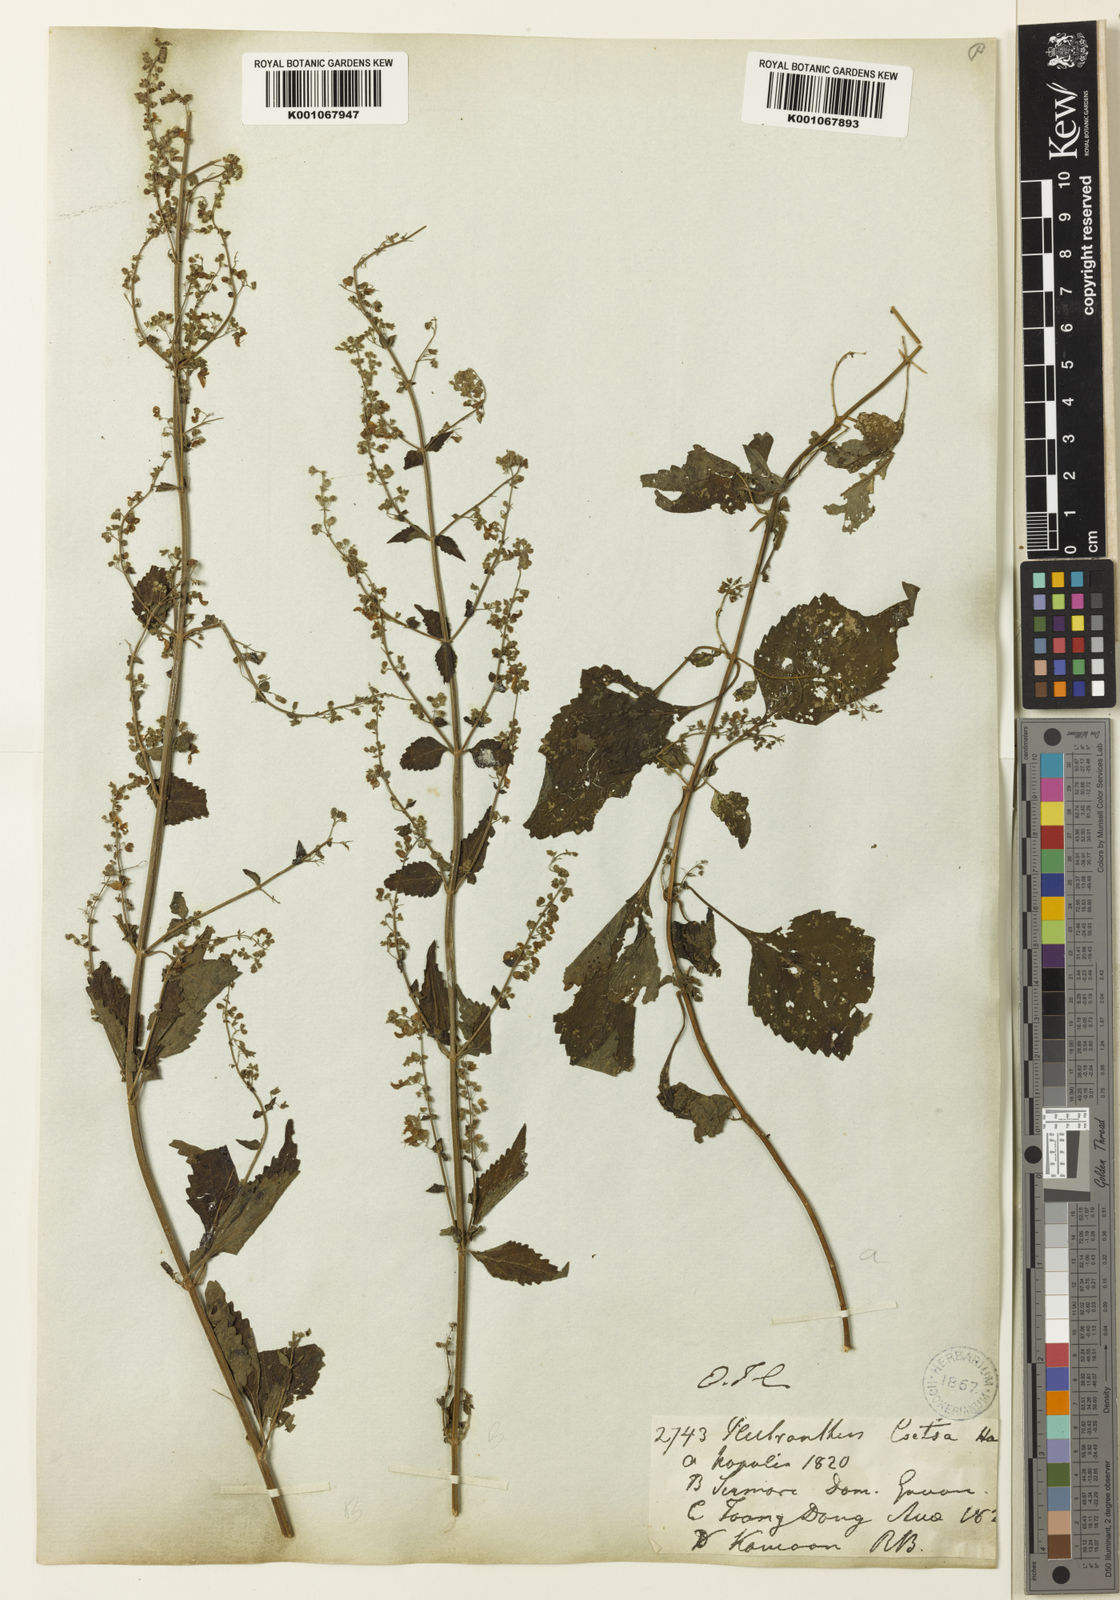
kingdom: Plantae
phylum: Tracheophyta
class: Magnoliopsida
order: Lamiales
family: Lamiaceae
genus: Isodon
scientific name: Isodon
